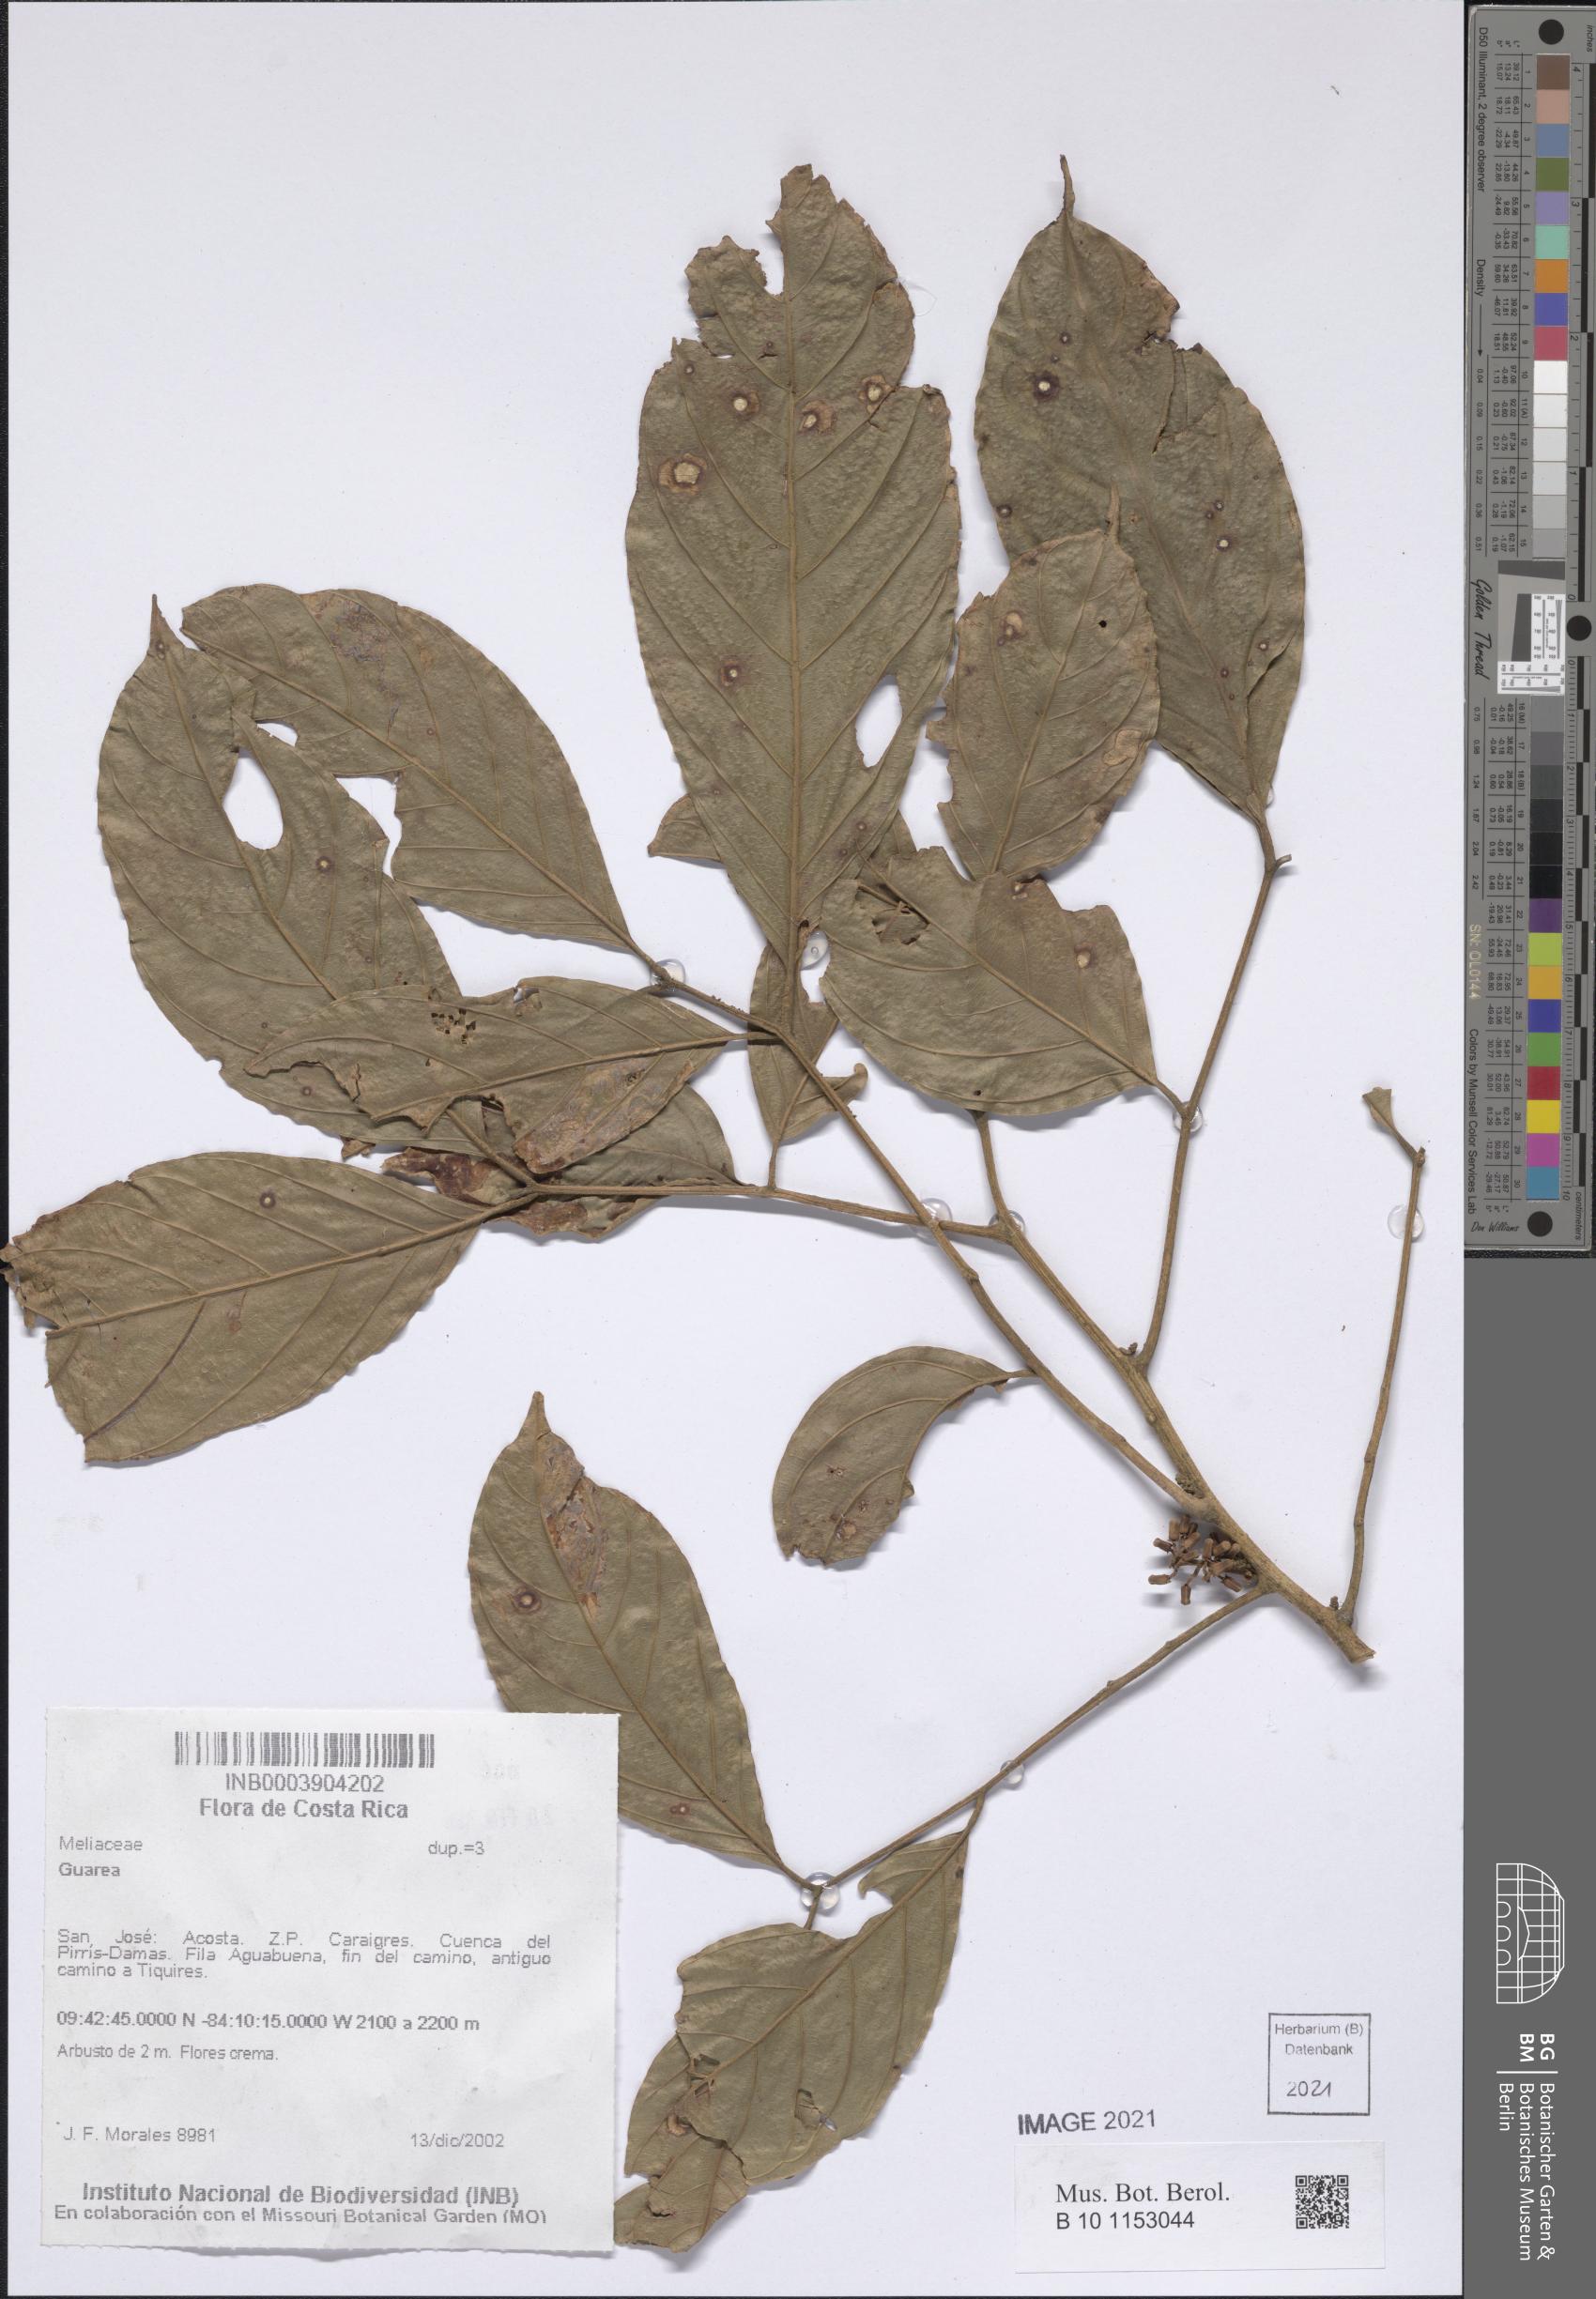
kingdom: Plantae
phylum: Tracheophyta
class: Magnoliopsida
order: Sapindales
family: Meliaceae
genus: Guarea
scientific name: Guarea
